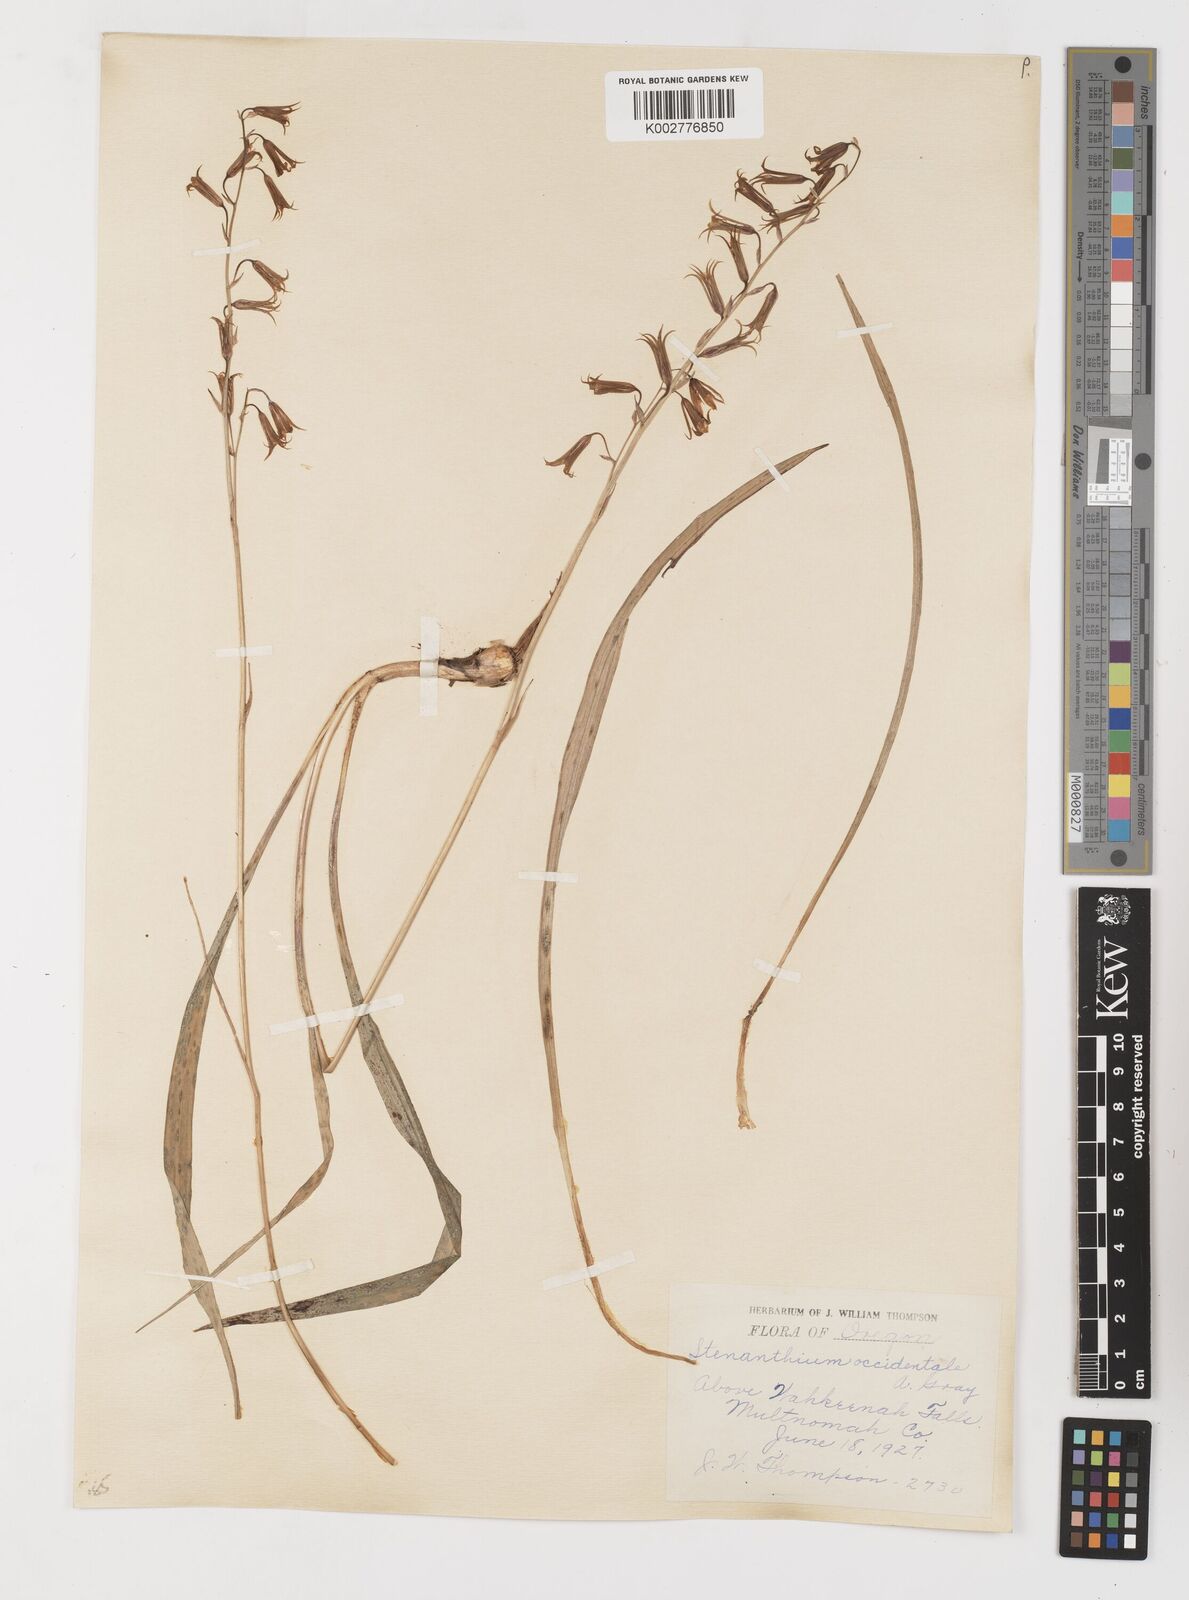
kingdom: Plantae
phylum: Tracheophyta
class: Liliopsida
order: Liliales
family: Melanthiaceae
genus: Anticlea
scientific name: Anticlea occidentalis
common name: Bronze-bells
